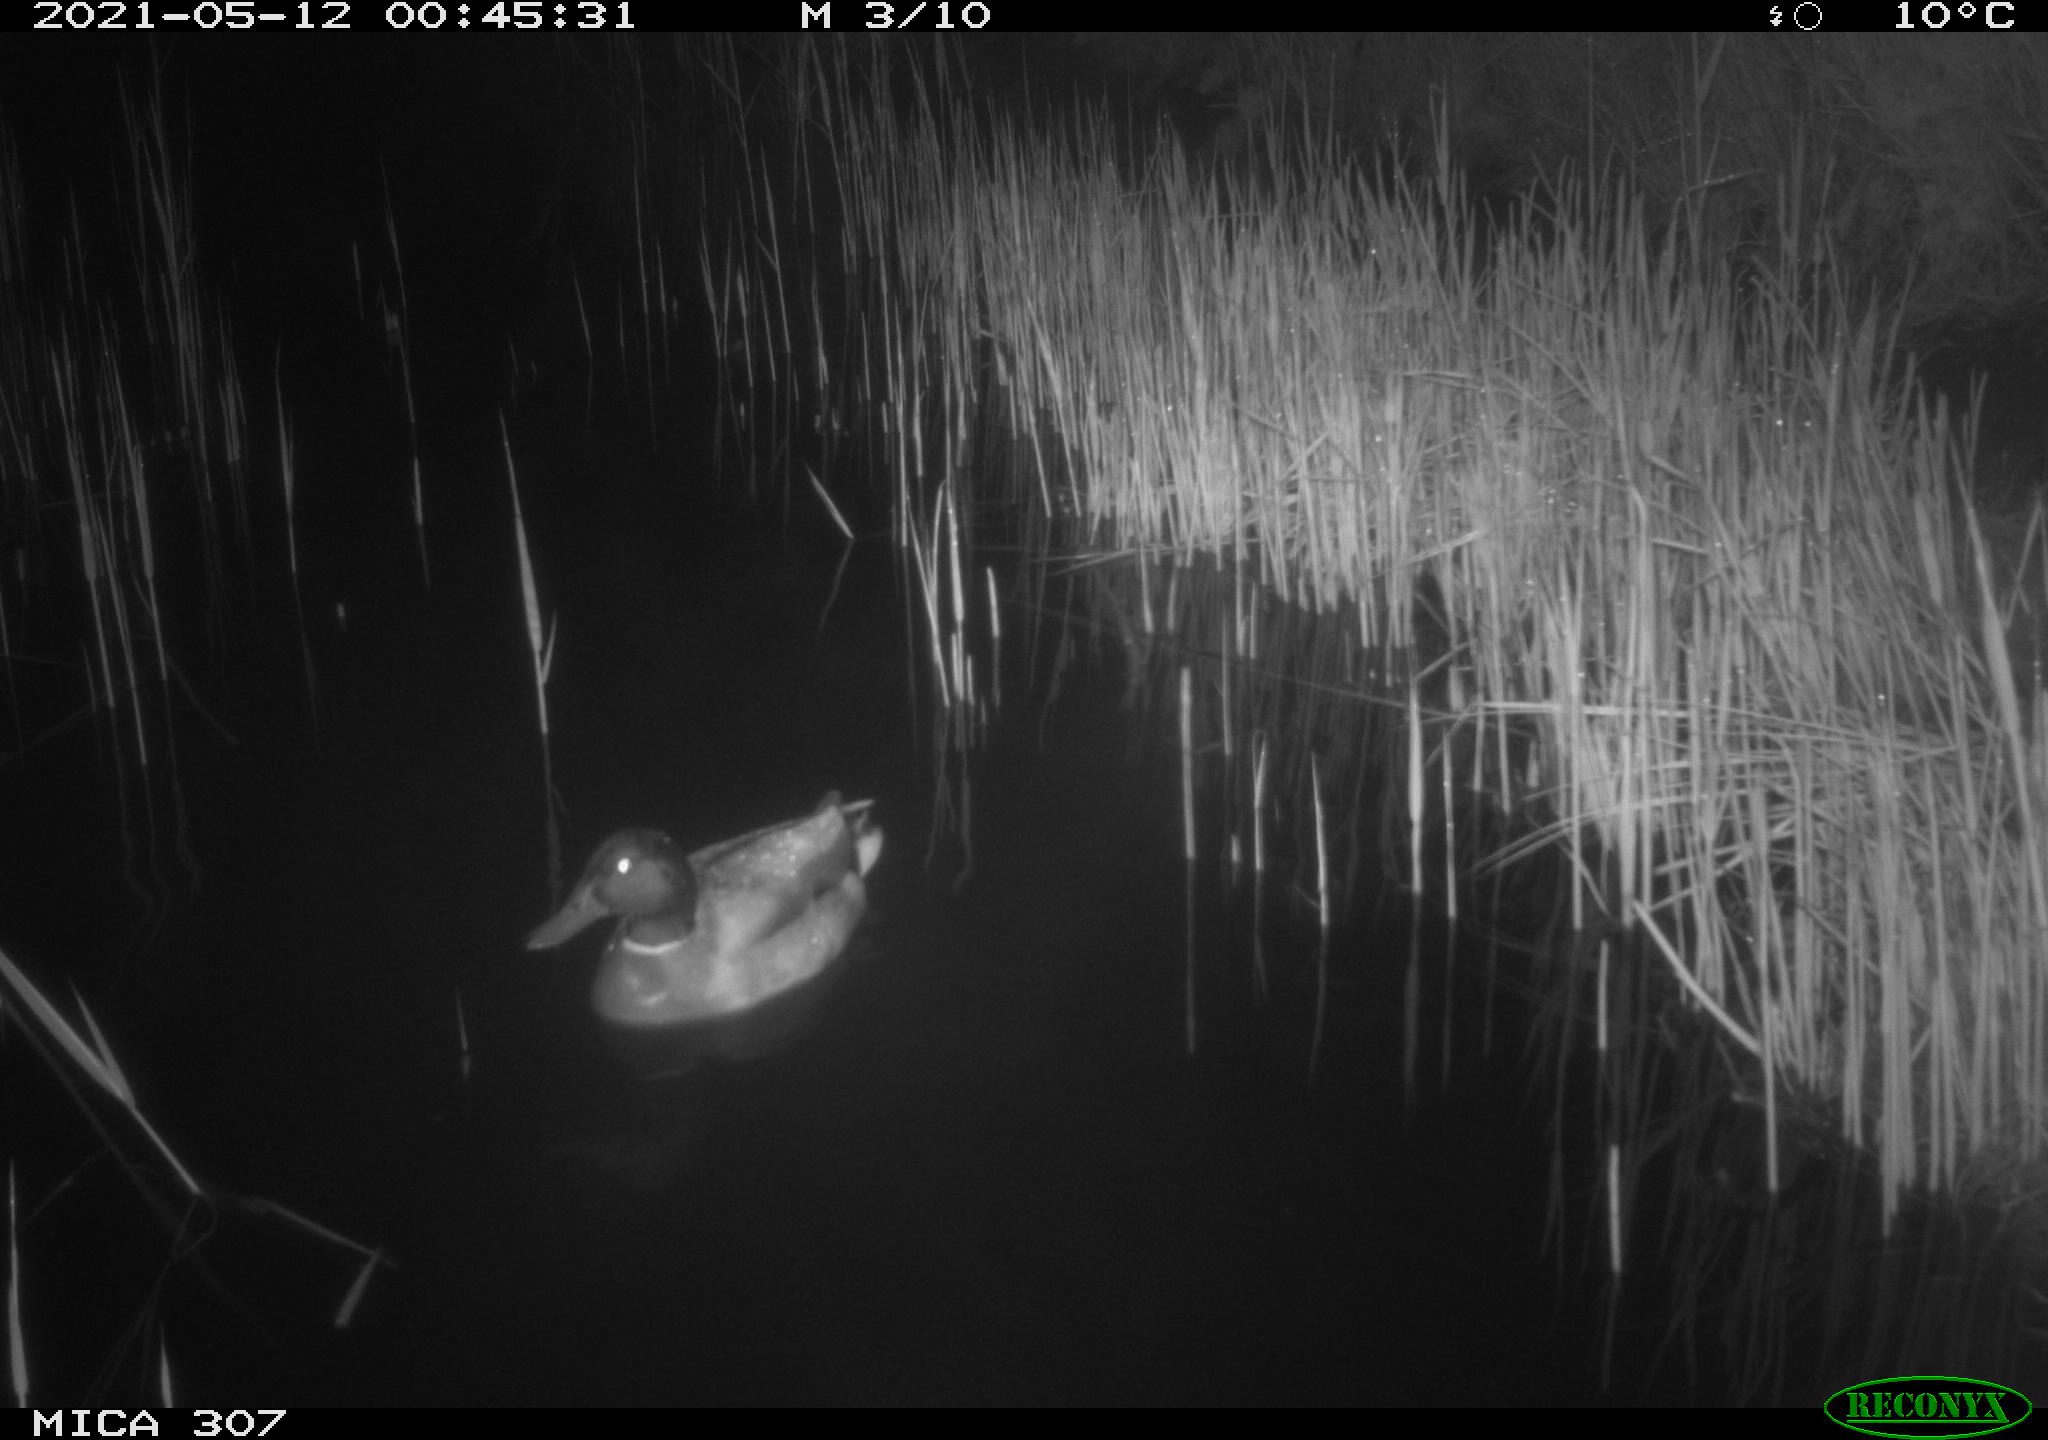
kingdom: Animalia
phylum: Chordata
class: Aves
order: Anseriformes
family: Anatidae
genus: Anas
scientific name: Anas platyrhynchos
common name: Mallard
